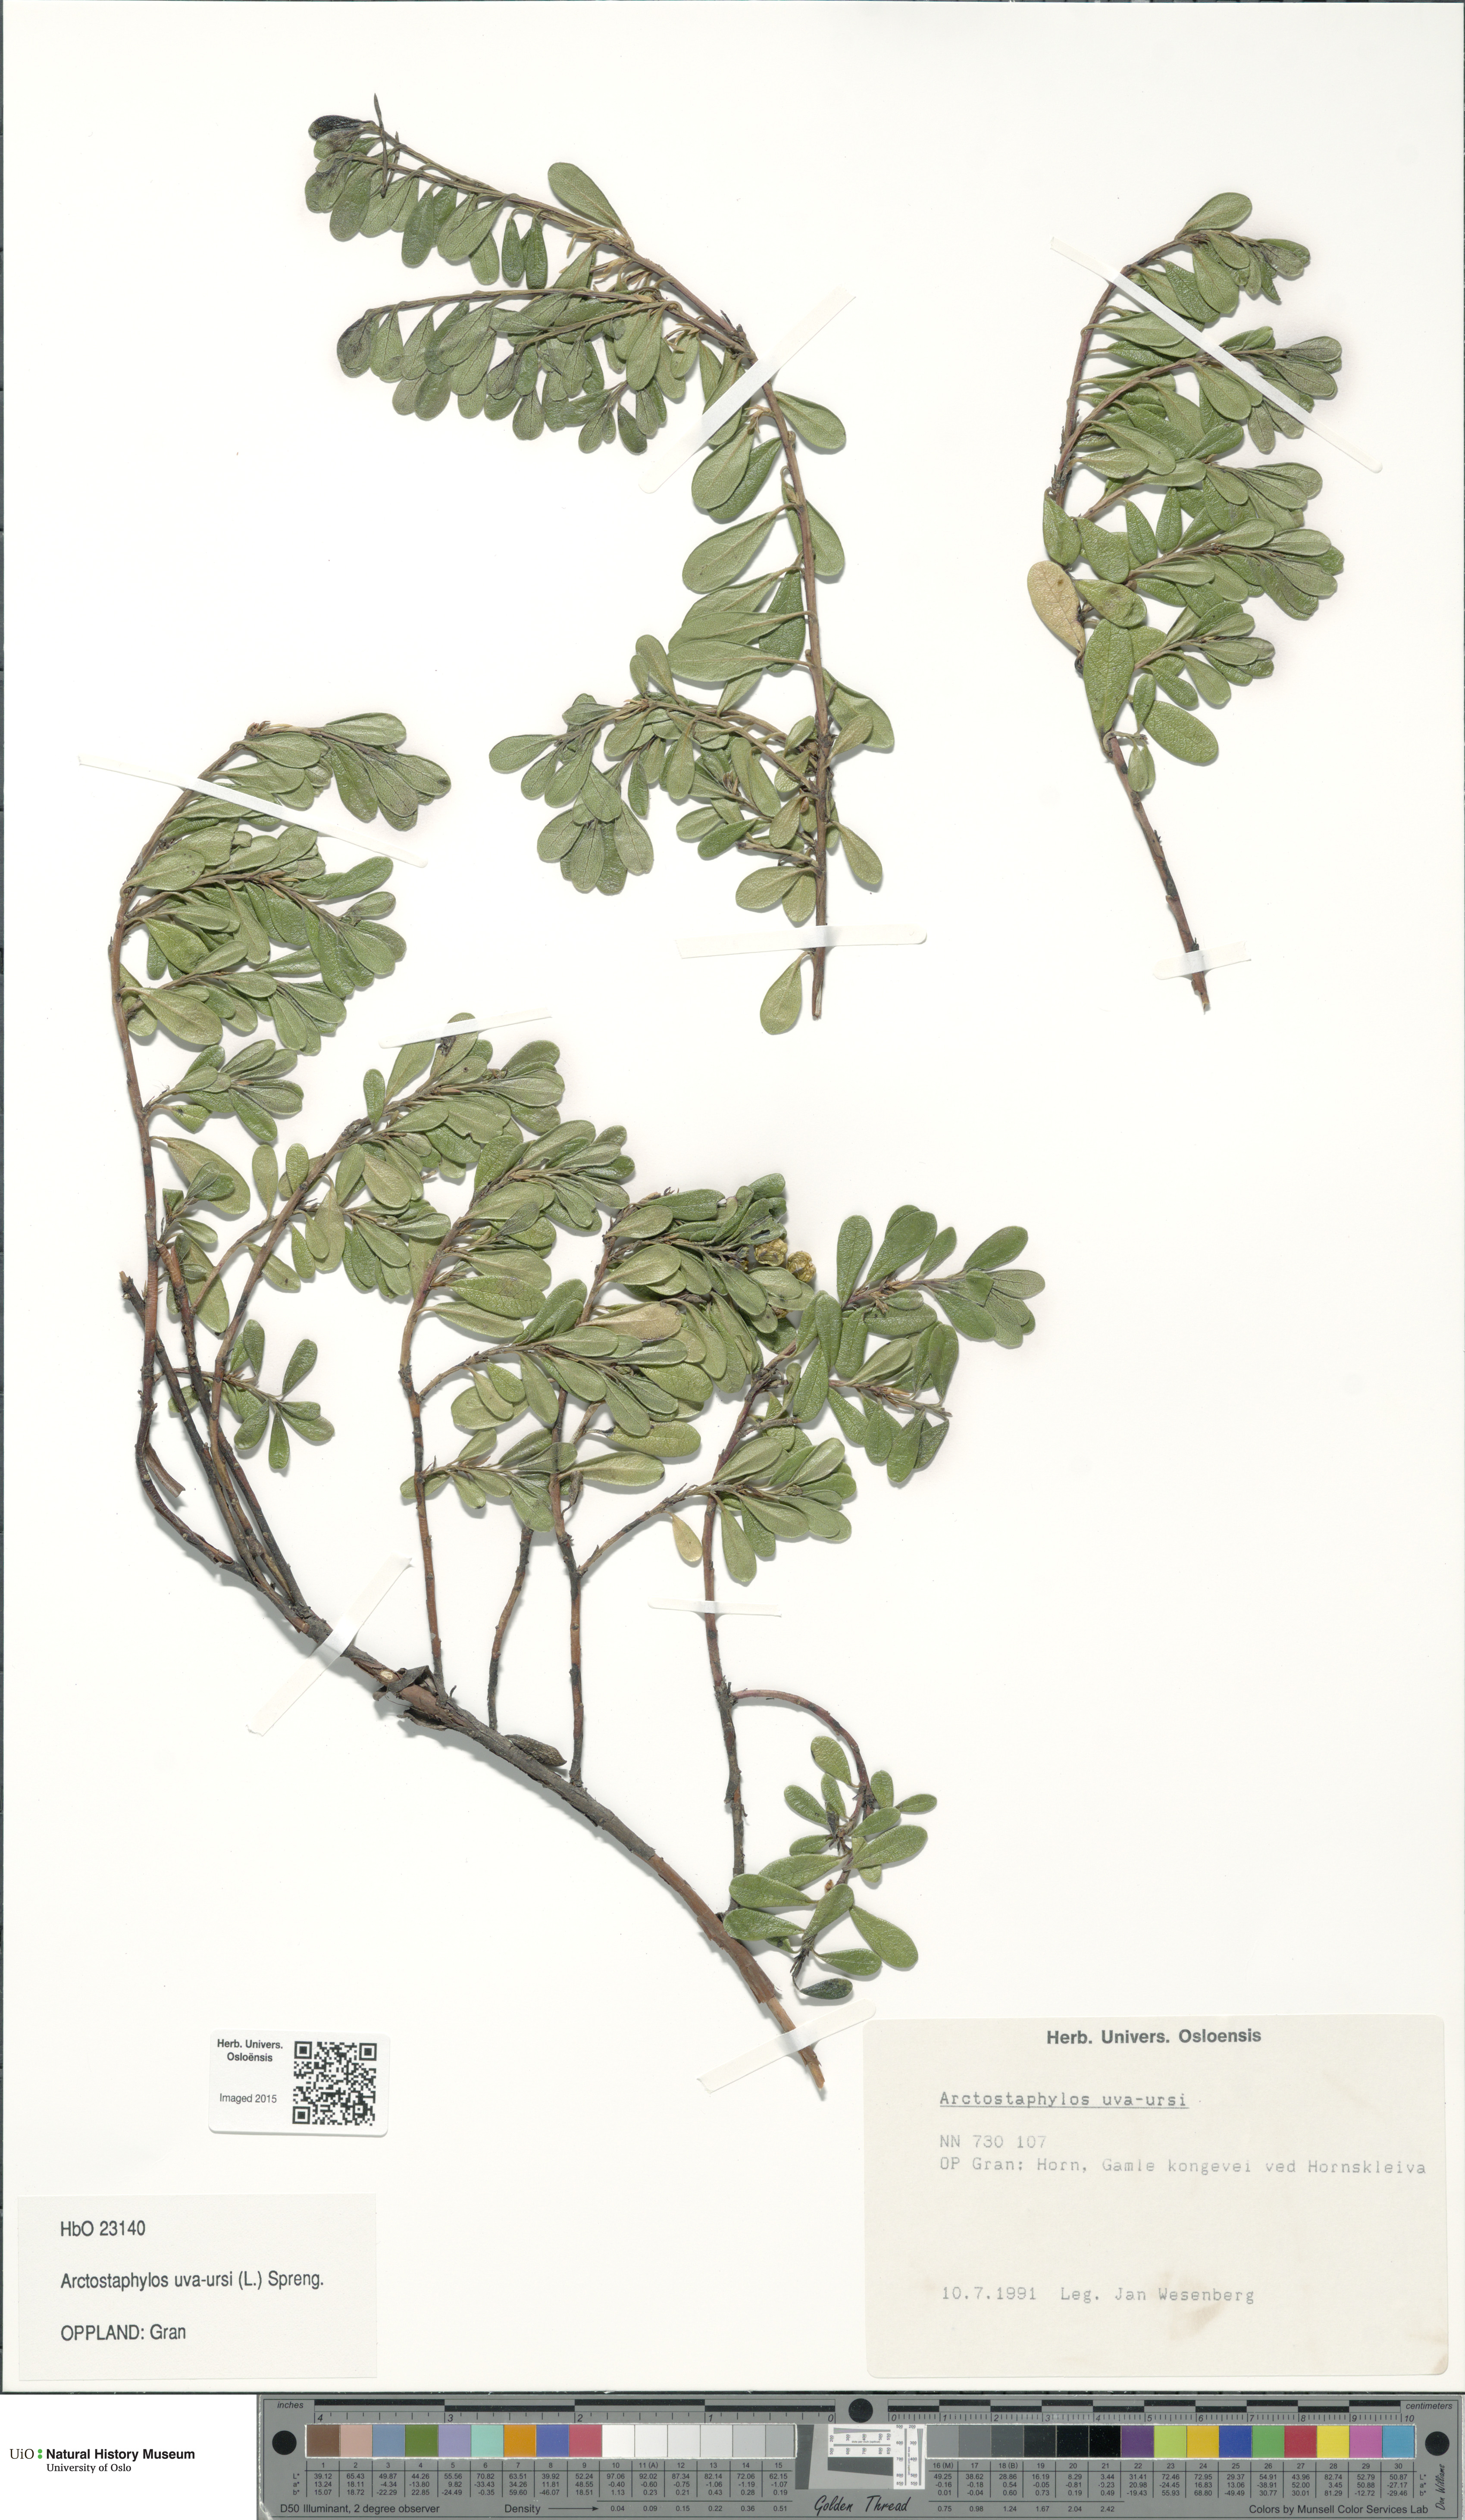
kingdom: Plantae
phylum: Tracheophyta
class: Magnoliopsida
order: Ericales
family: Ericaceae
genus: Arctostaphylos
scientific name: Arctostaphylos uva-ursi
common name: Bearberry
